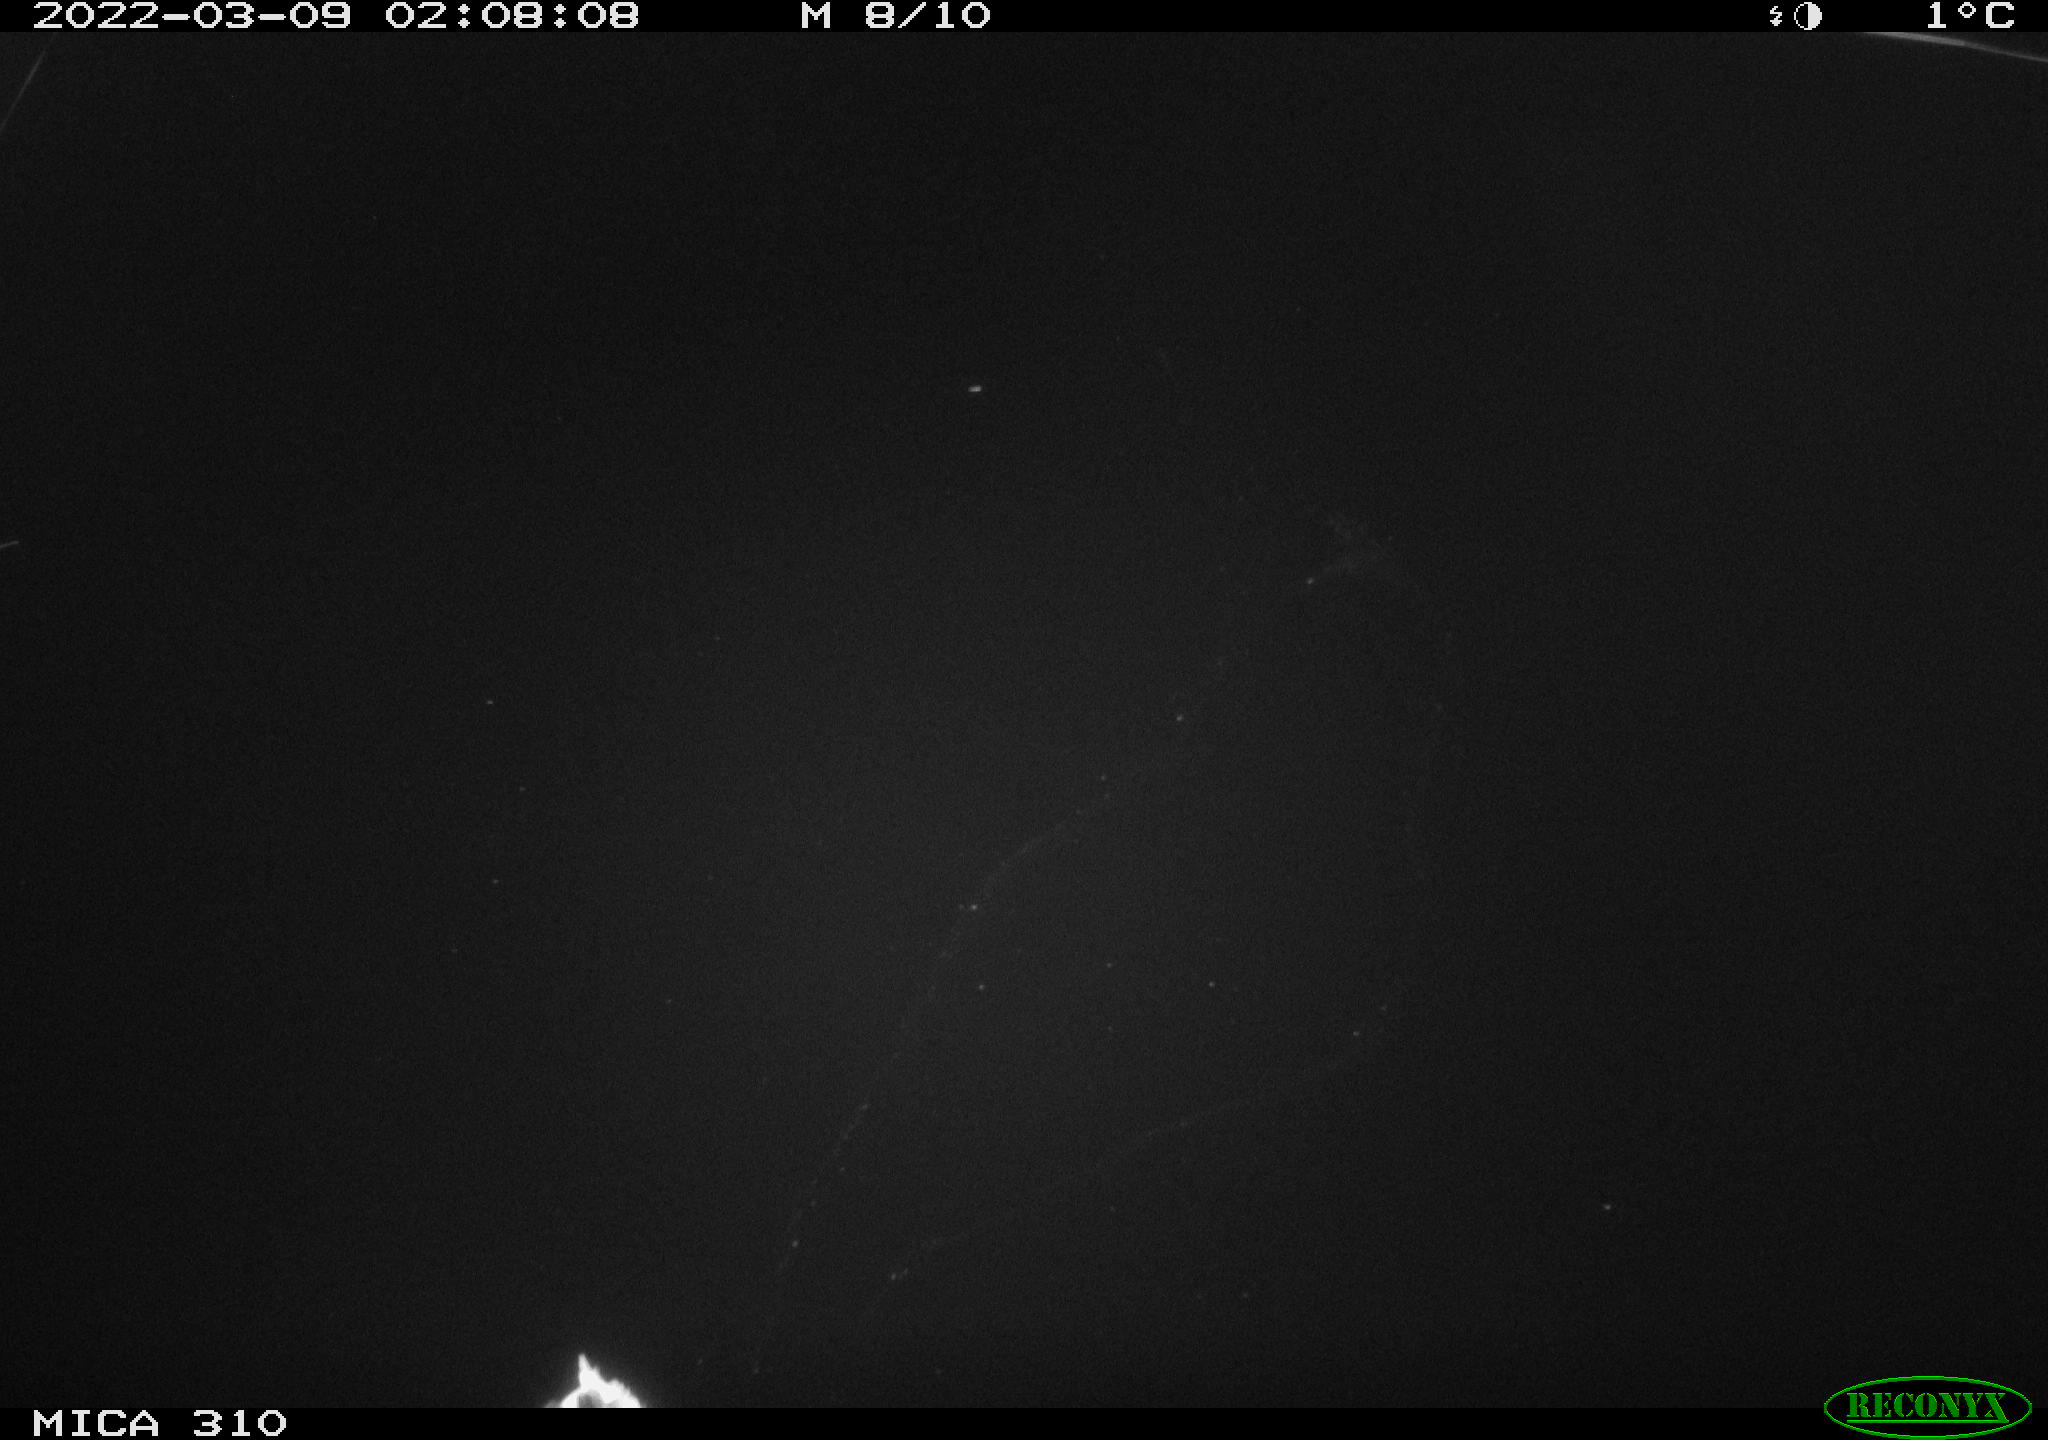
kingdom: Animalia
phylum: Chordata
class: Aves
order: Anseriformes
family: Anatidae
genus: Anas
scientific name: Anas platyrhynchos
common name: Mallard
